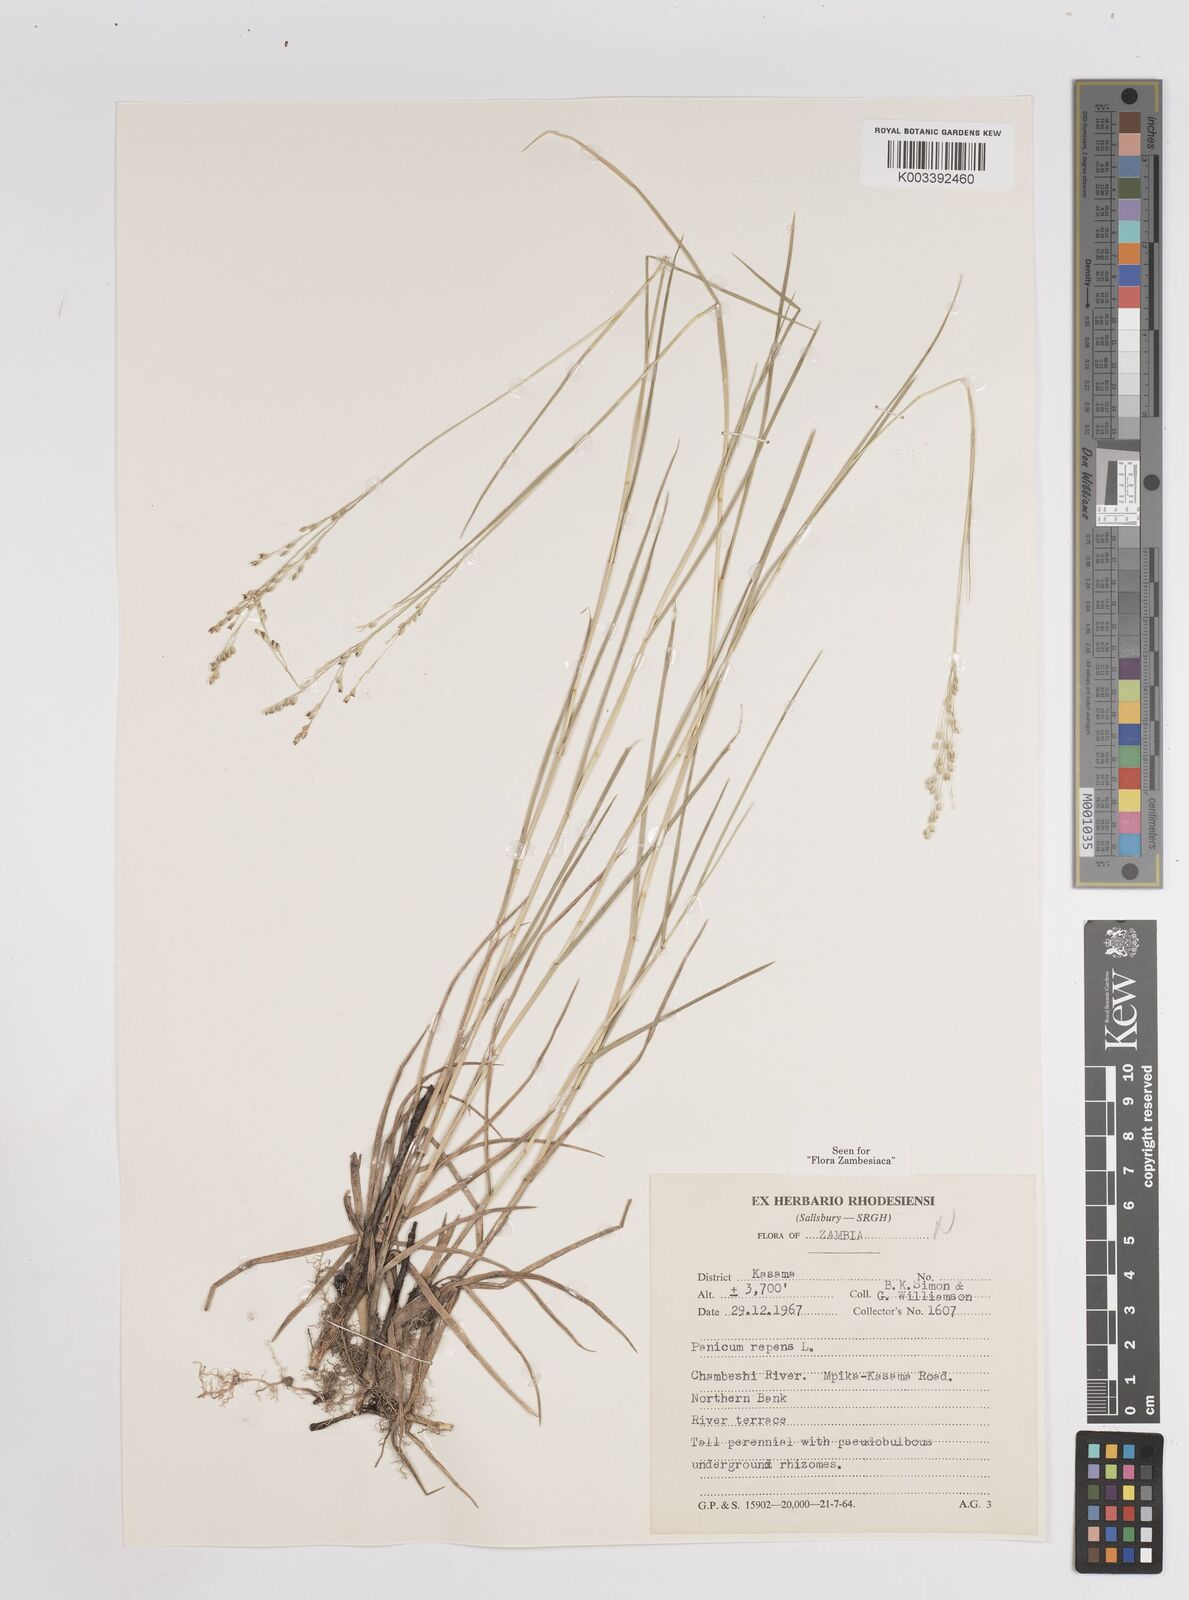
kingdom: Plantae
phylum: Tracheophyta
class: Liliopsida
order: Poales
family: Poaceae
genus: Panicum
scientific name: Panicum repens
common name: Torpedo grass
